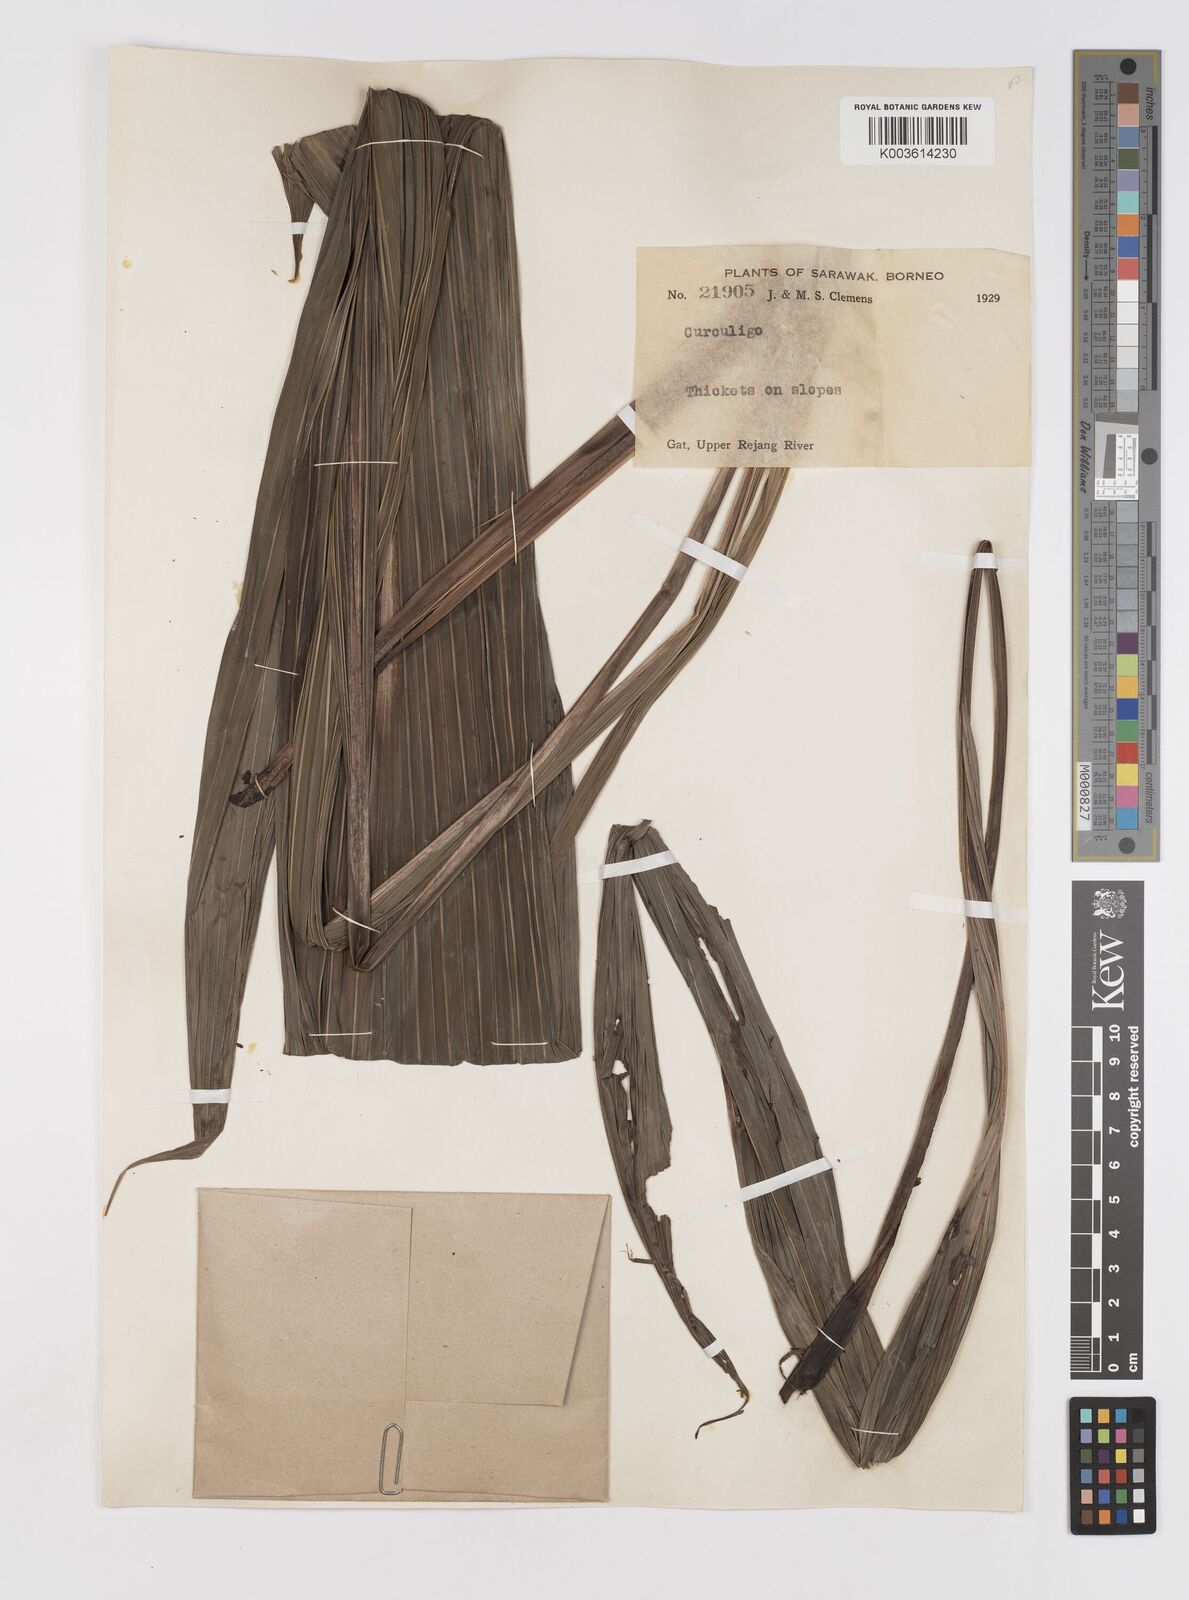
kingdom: Plantae
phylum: Tracheophyta
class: Liliopsida
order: Asparagales
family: Hypoxidaceae
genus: Curculigo
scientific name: Curculigo
